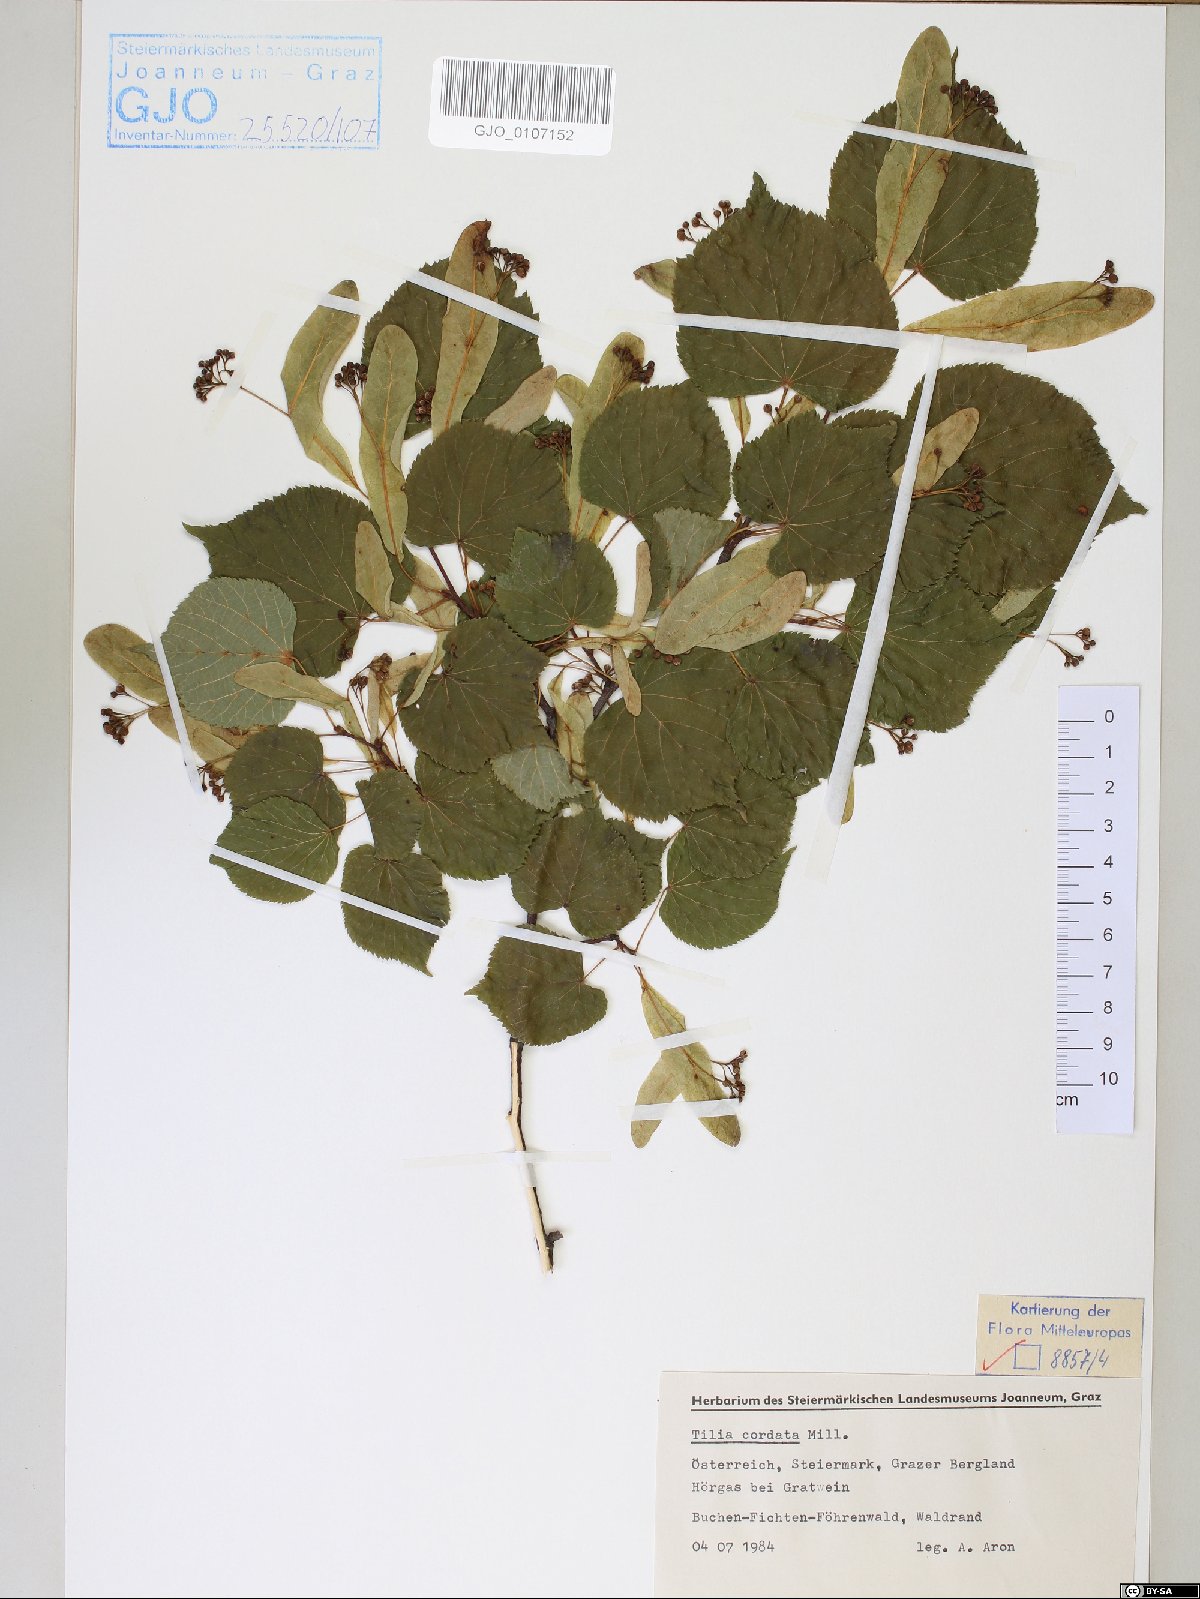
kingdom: Plantae
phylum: Tracheophyta
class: Magnoliopsida
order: Malvales
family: Malvaceae
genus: Tilia
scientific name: Tilia cordata
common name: Small-leaved lime
